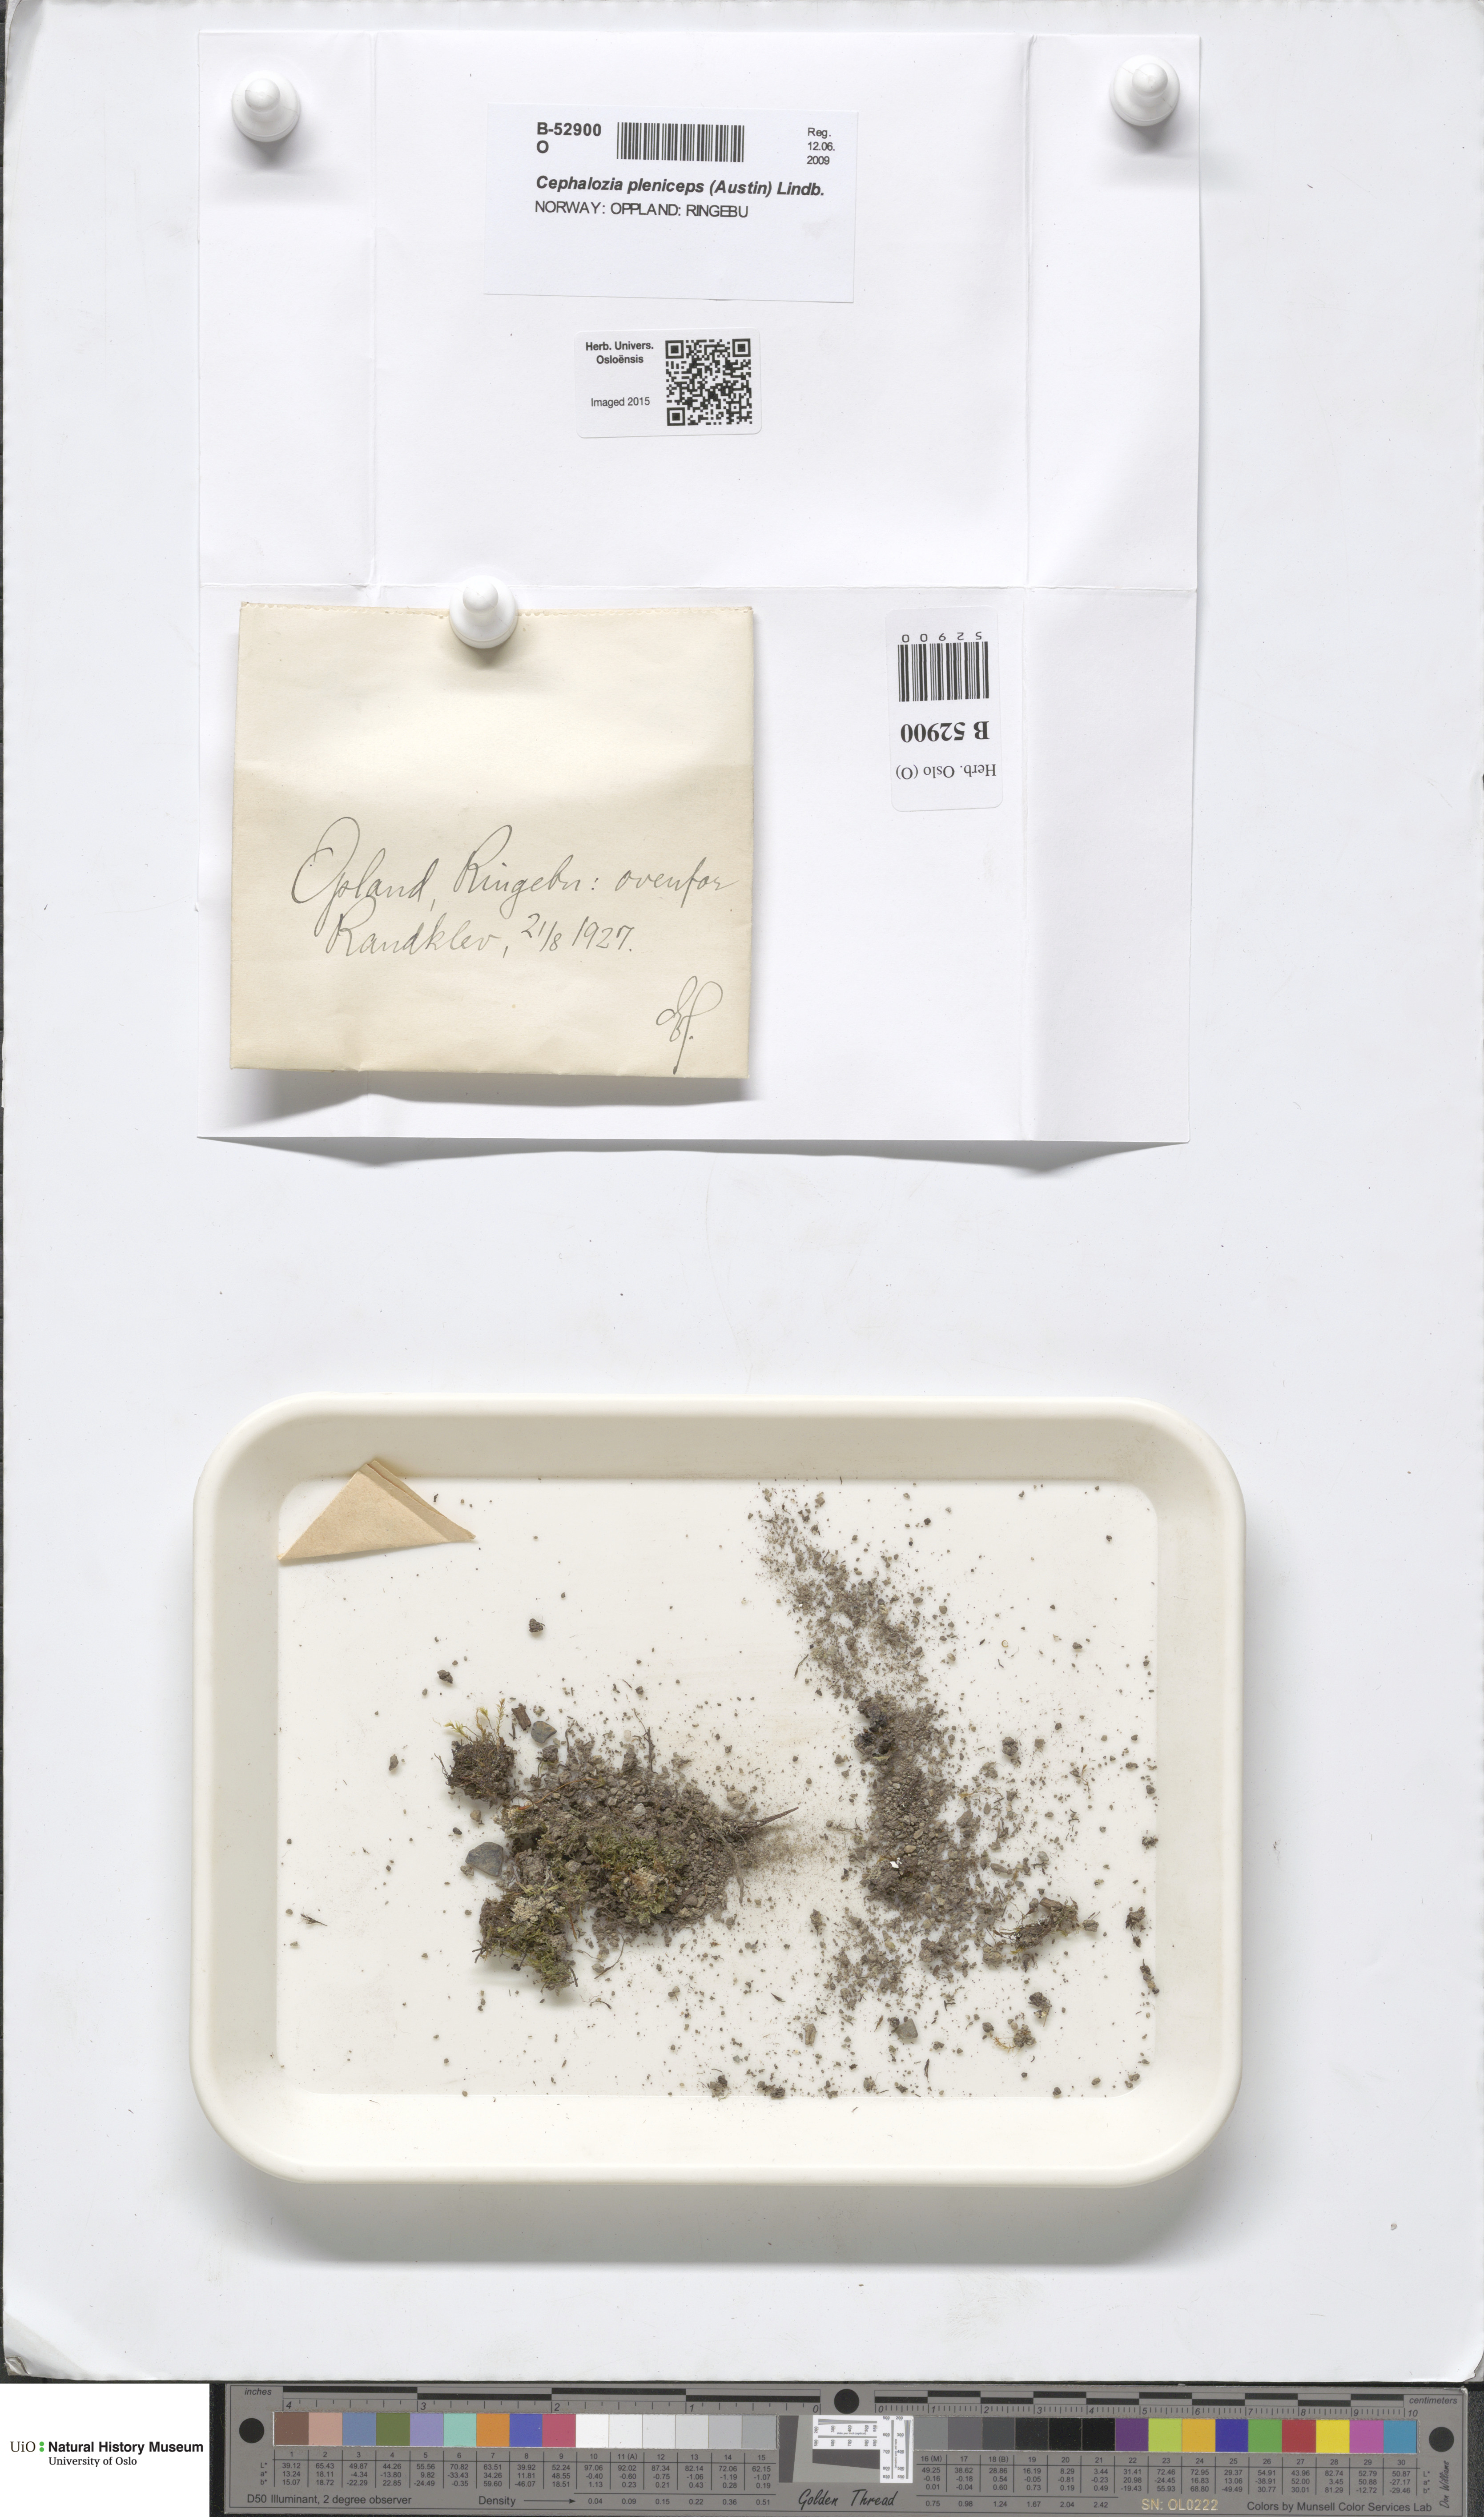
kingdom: Plantae
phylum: Marchantiophyta
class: Jungermanniopsida
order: Jungermanniales
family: Cephaloziaceae
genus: Fuscocephaloziopsis
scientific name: Fuscocephaloziopsis pleniceps
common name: Blunt pincerwort
